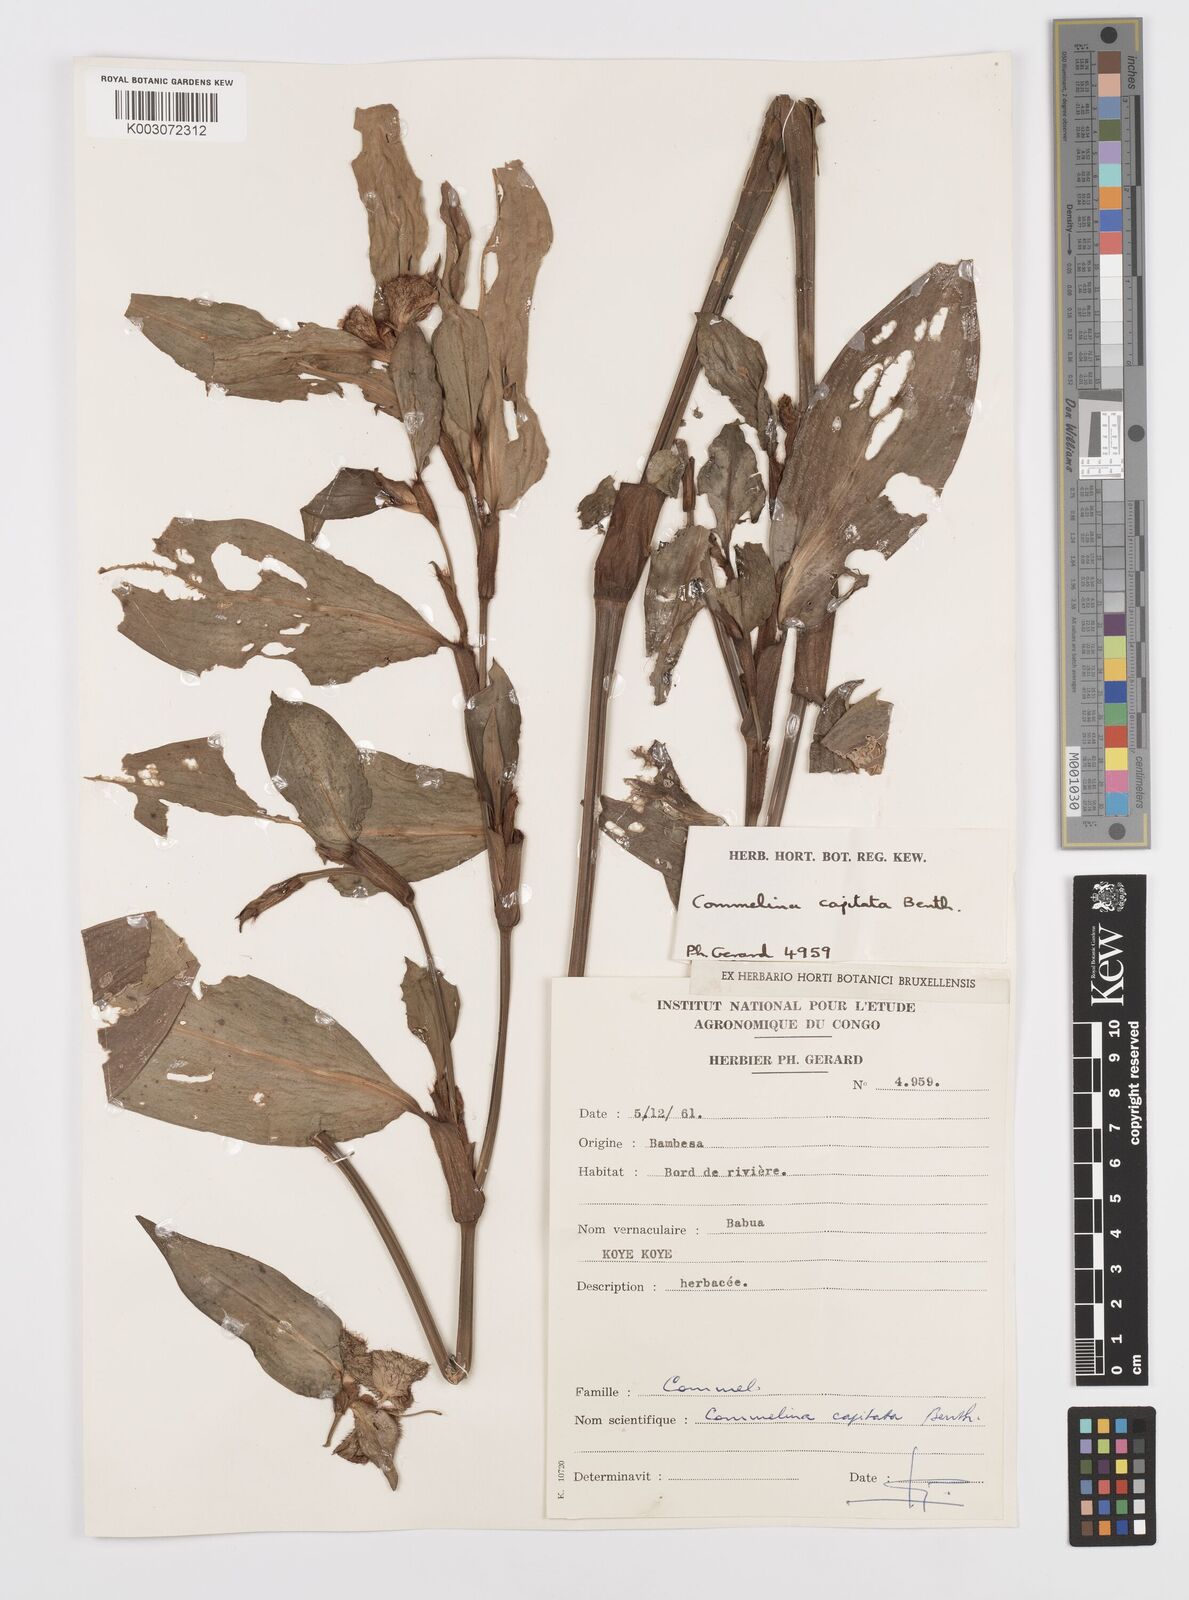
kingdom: Plantae
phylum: Tracheophyta
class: Liliopsida
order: Commelinales
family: Commelinaceae
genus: Commelina
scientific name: Commelina capitata
